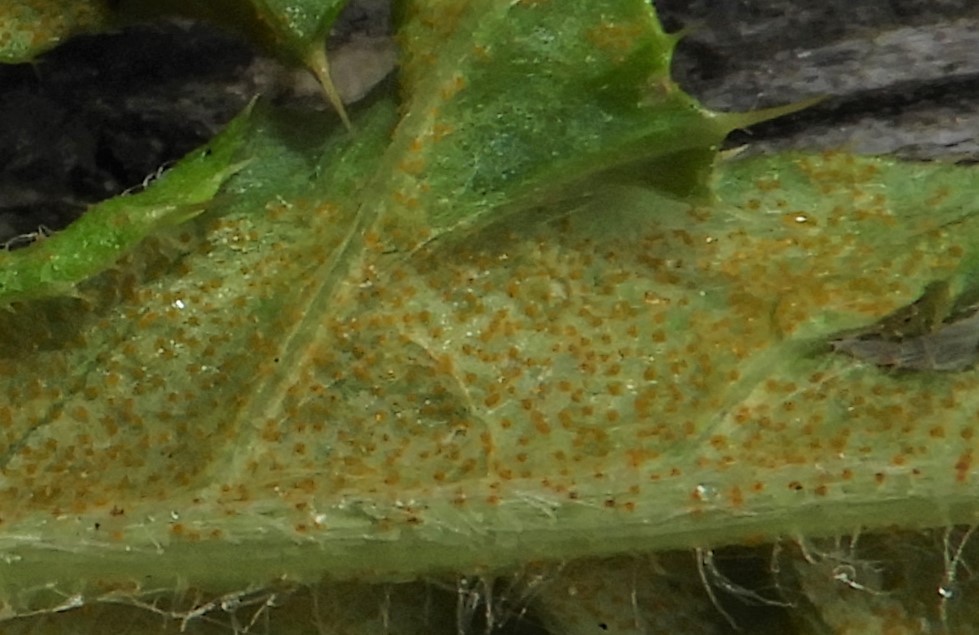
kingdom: Fungi
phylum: Basidiomycota
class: Pucciniomycetes
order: Pucciniales
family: Pucciniaceae
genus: Puccinia
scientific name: Puccinia suaveolens
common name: tidsel-tvecellerust
